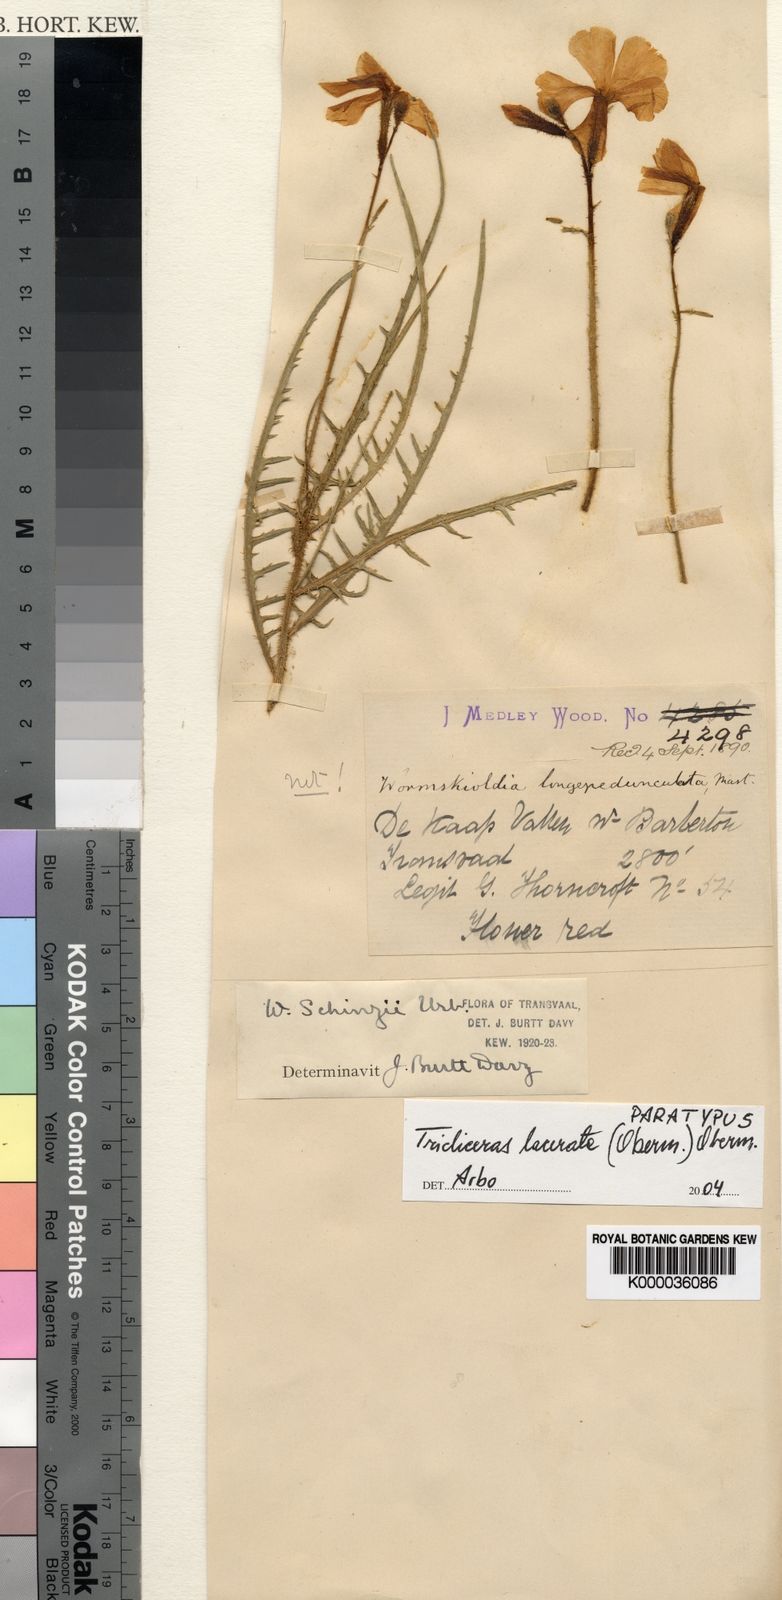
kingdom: Plantae
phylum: Tracheophyta
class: Magnoliopsida
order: Malpighiales
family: Turneraceae
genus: Streptopetalum
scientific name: Streptopetalum
